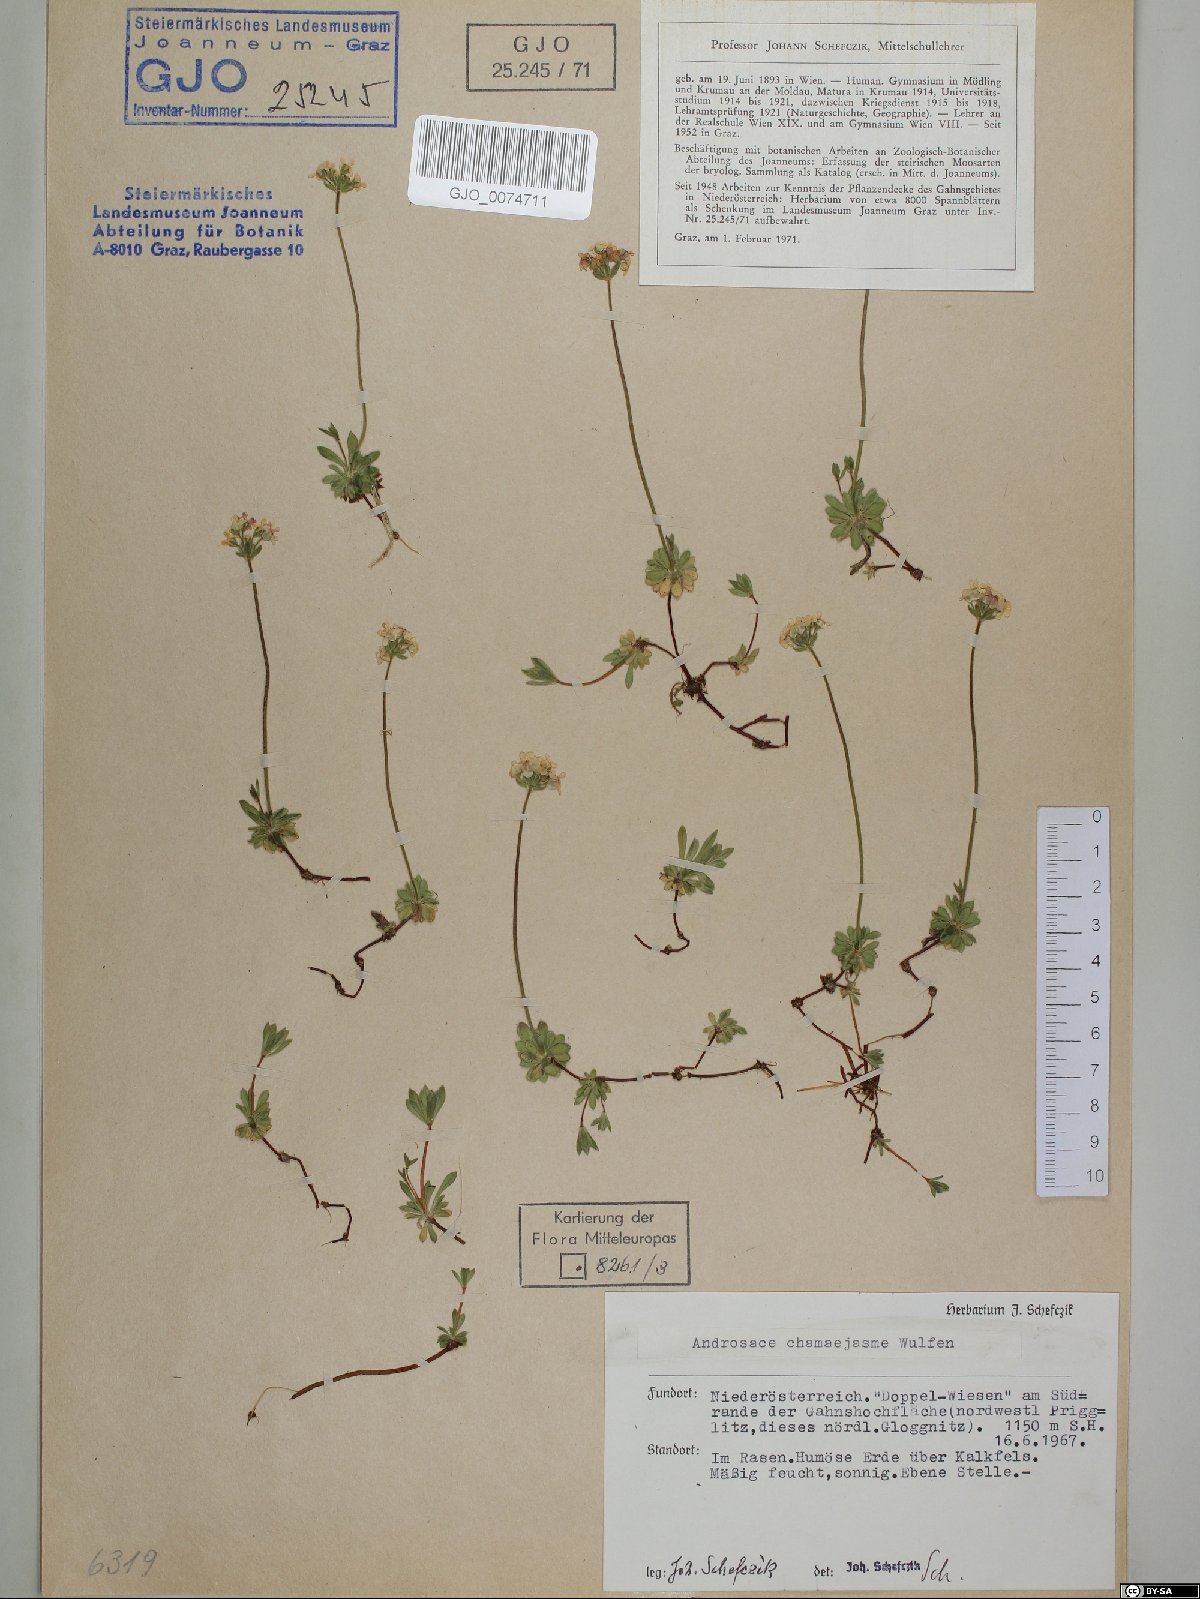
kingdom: Plantae
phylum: Tracheophyta
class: Magnoliopsida
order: Ericales
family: Primulaceae
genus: Androsace
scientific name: Androsace chamaejasme
